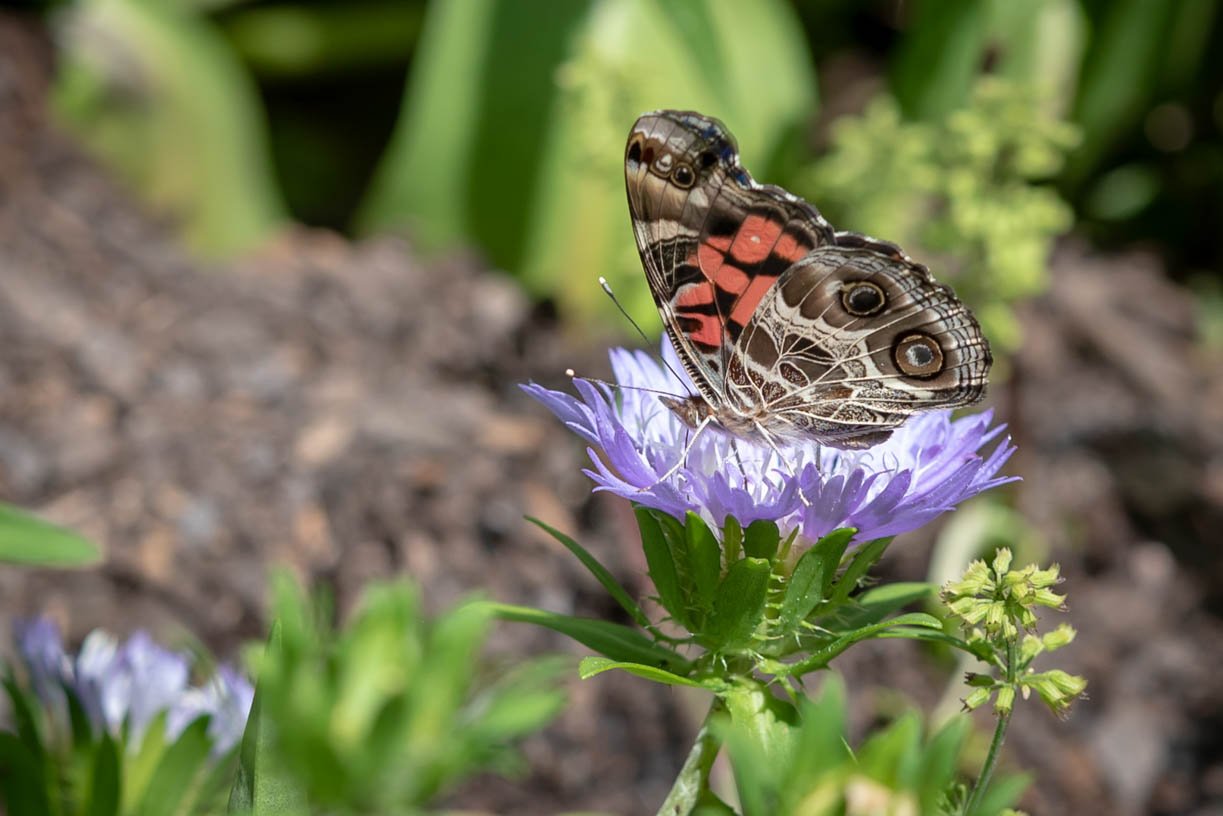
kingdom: Animalia
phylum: Arthropoda
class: Insecta
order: Lepidoptera
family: Nymphalidae
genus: Vanessa
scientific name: Vanessa virginiensis
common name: American Lady
